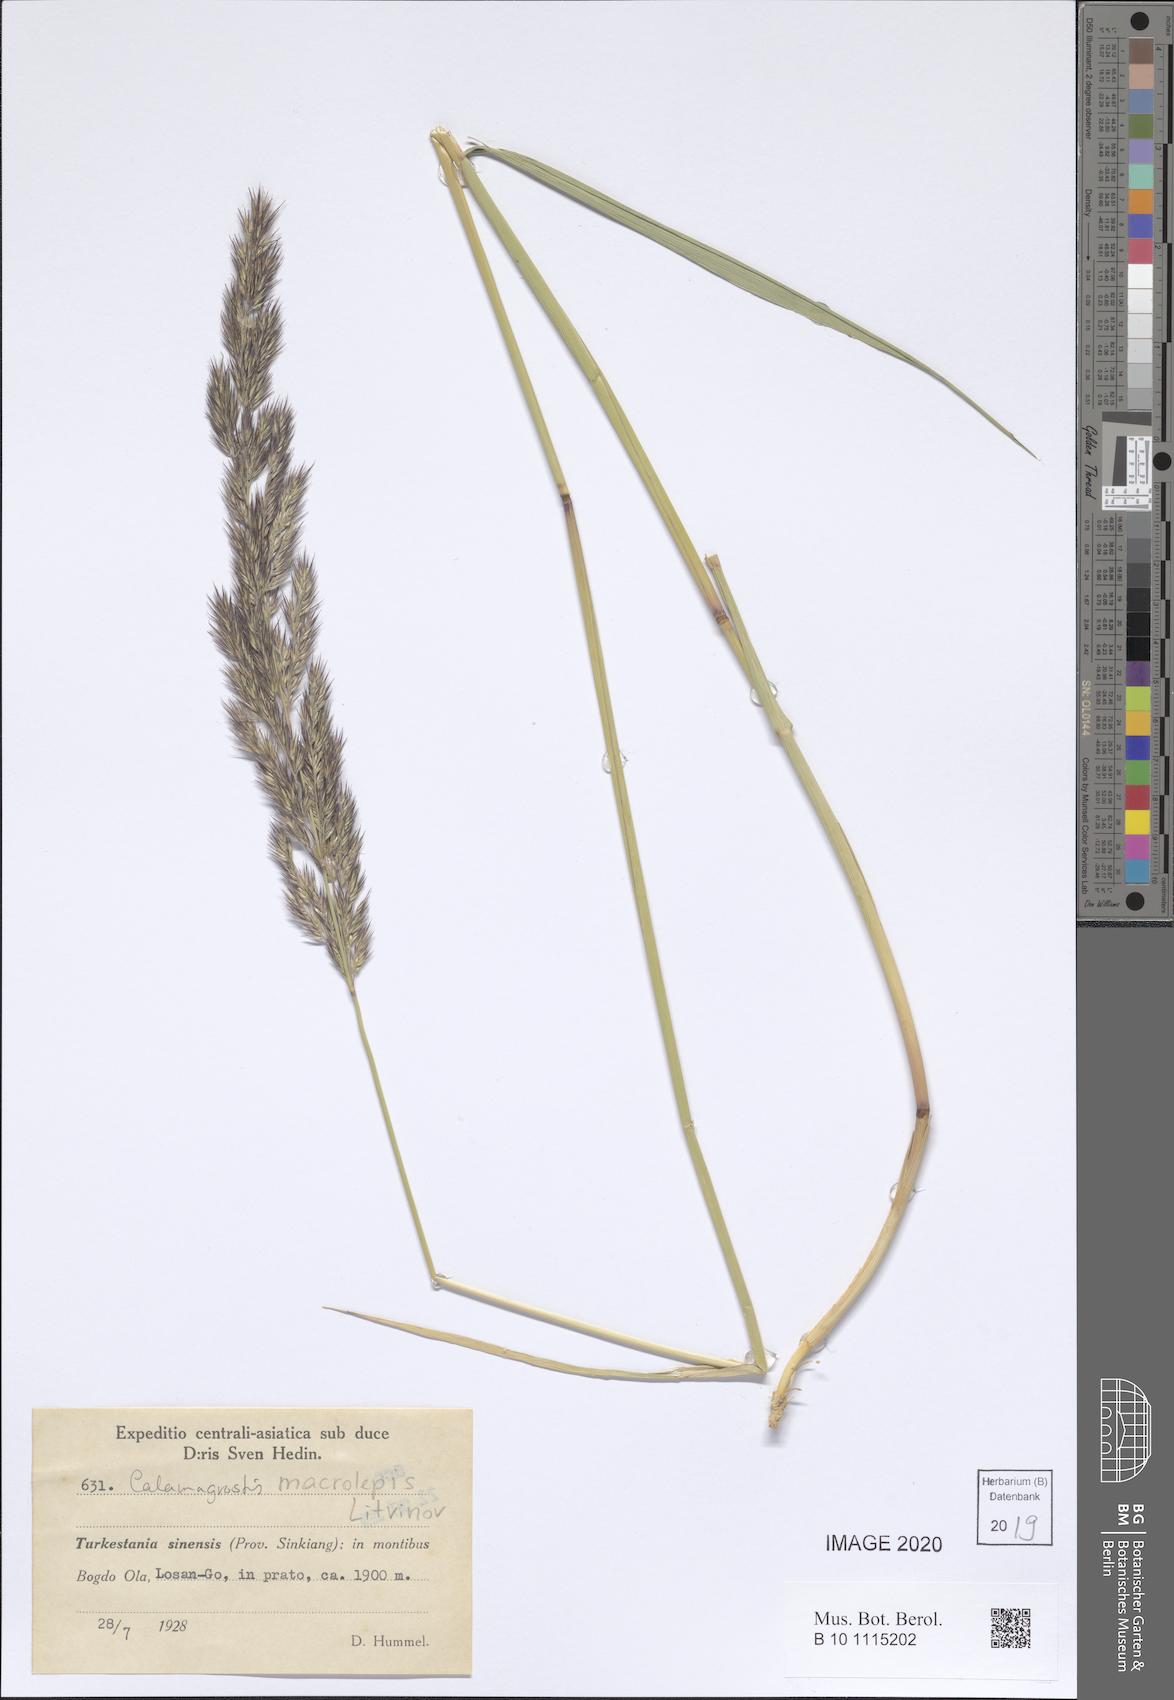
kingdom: Plantae
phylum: Tracheophyta
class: Liliopsida
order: Poales
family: Poaceae
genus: Calamagrostis
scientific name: Calamagrostis macrolepis
